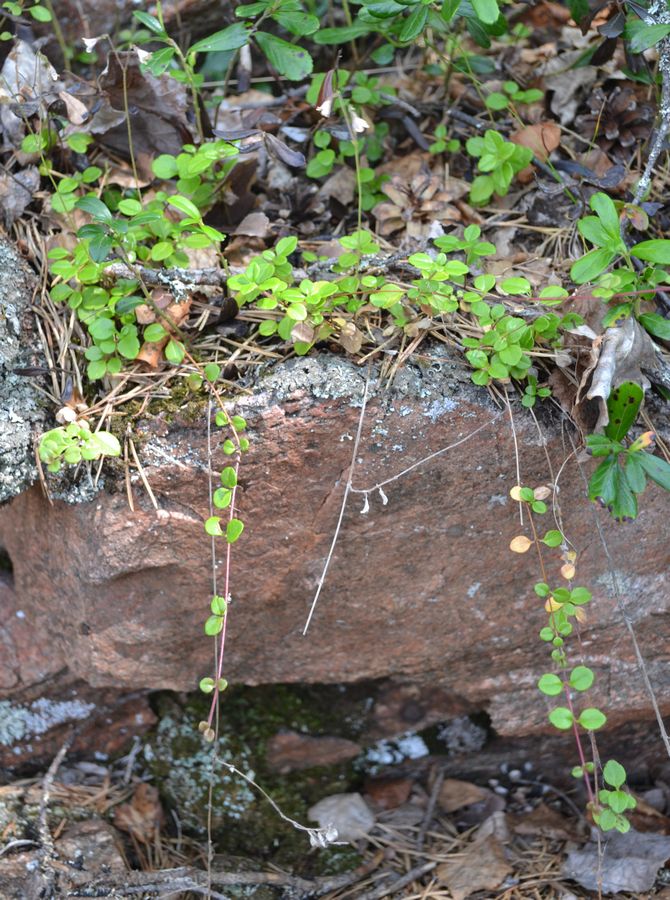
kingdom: Plantae
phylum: Tracheophyta
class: Magnoliopsida
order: Dipsacales
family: Caprifoliaceae
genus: Linnaea
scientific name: Linnaea borealis
